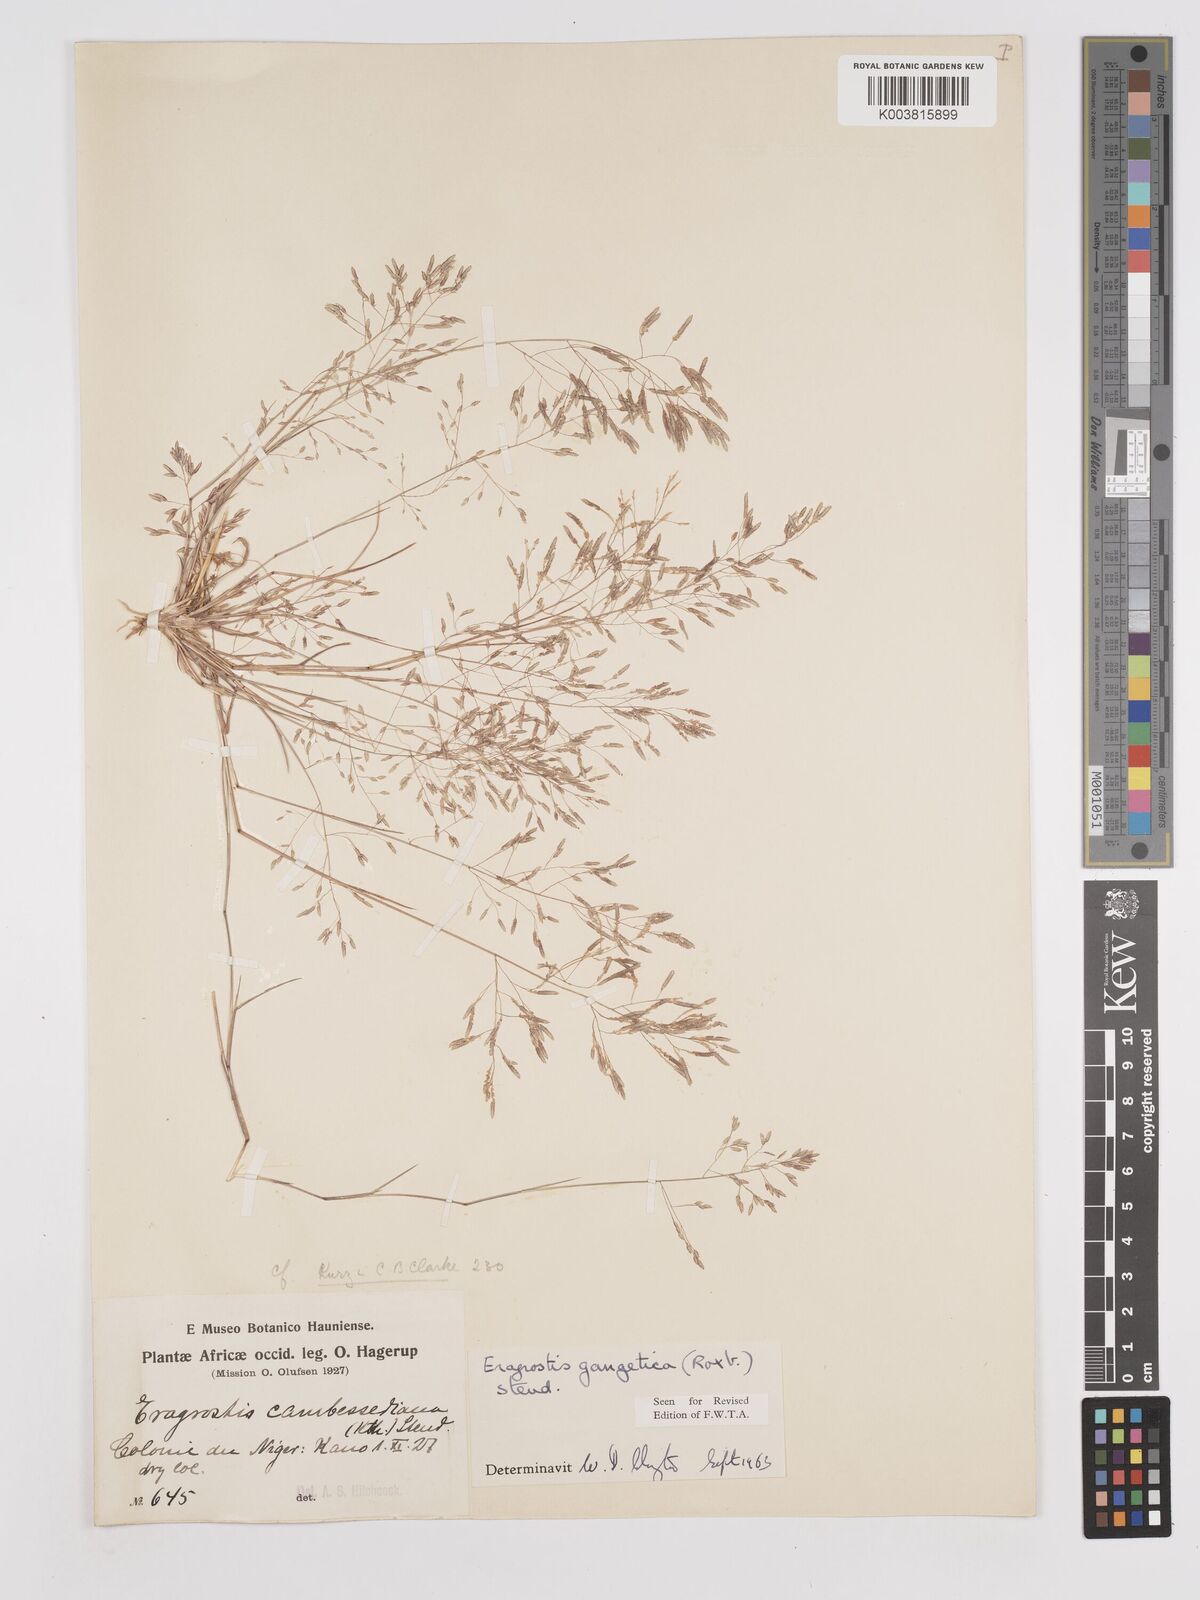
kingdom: Plantae
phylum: Tracheophyta
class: Liliopsida
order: Poales
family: Poaceae
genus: Eragrostis
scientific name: Eragrostis gangetica
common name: Slimflower lovegrass
